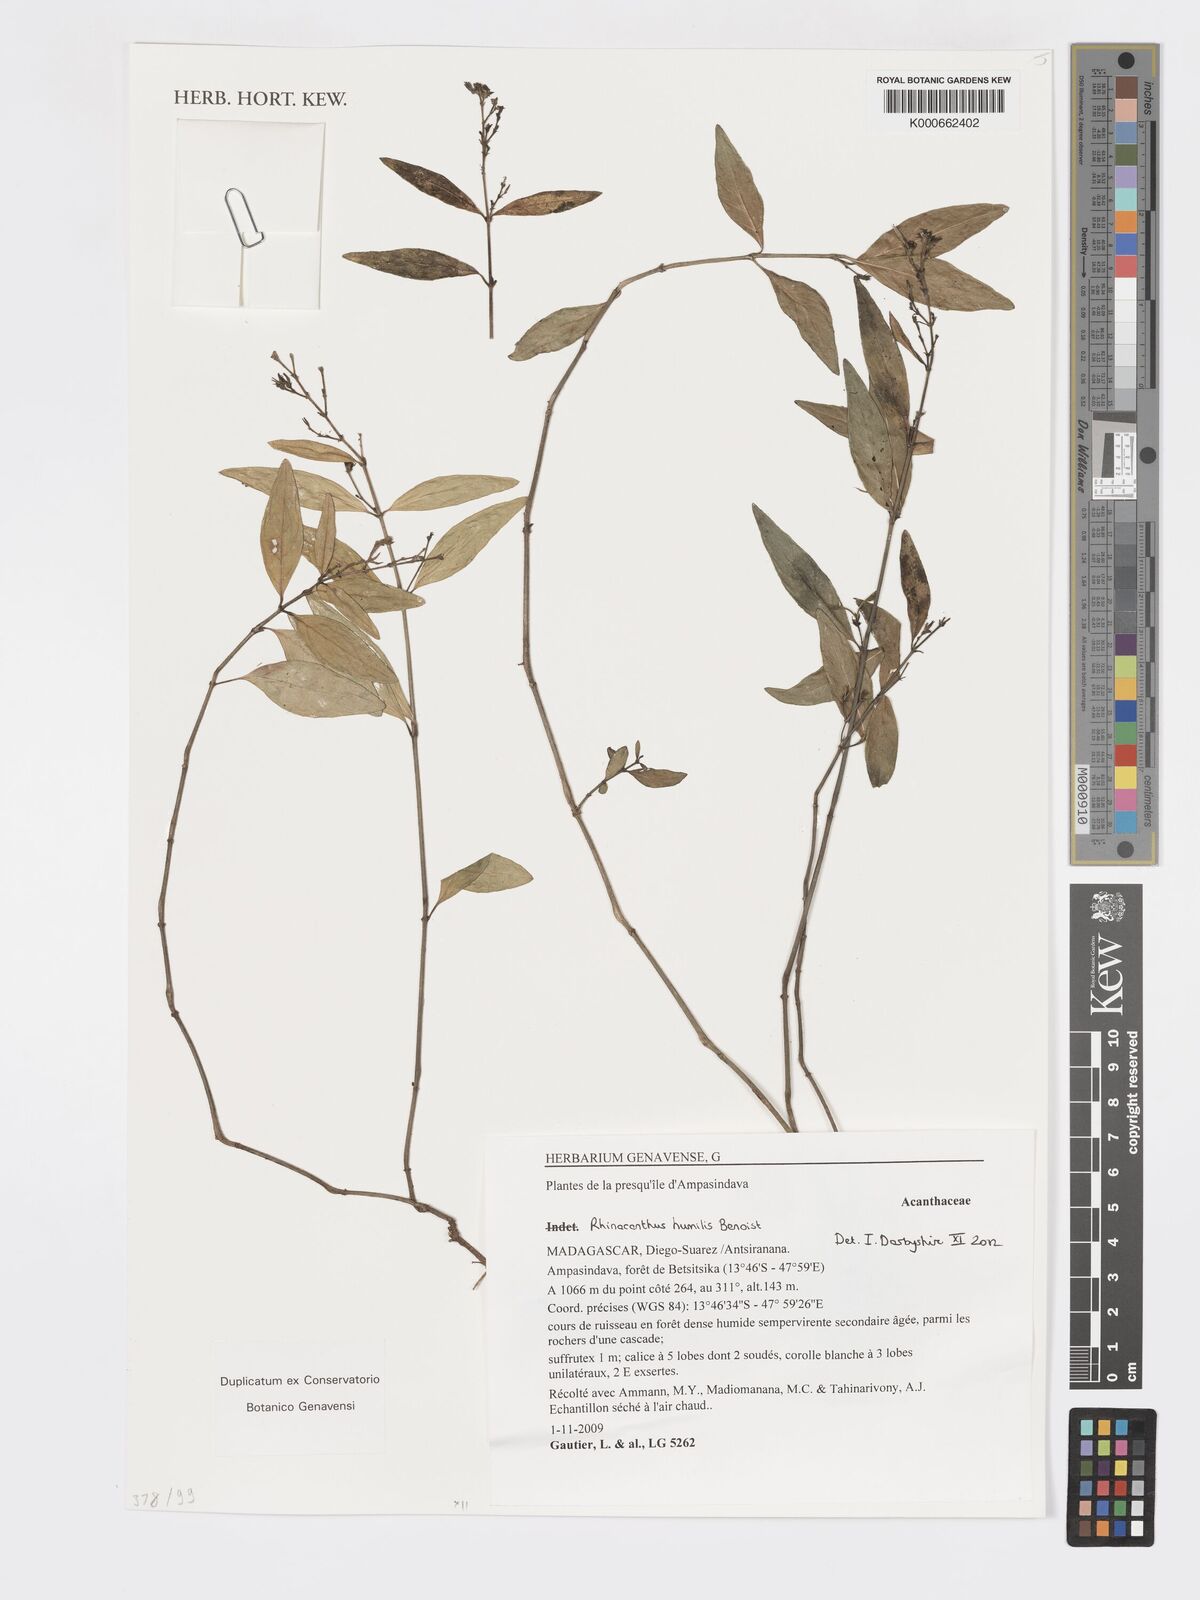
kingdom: Plantae
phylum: Tracheophyta
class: Magnoliopsida
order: Lamiales
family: Acanthaceae
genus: Rhinacanthus
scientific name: Rhinacanthus humilis
